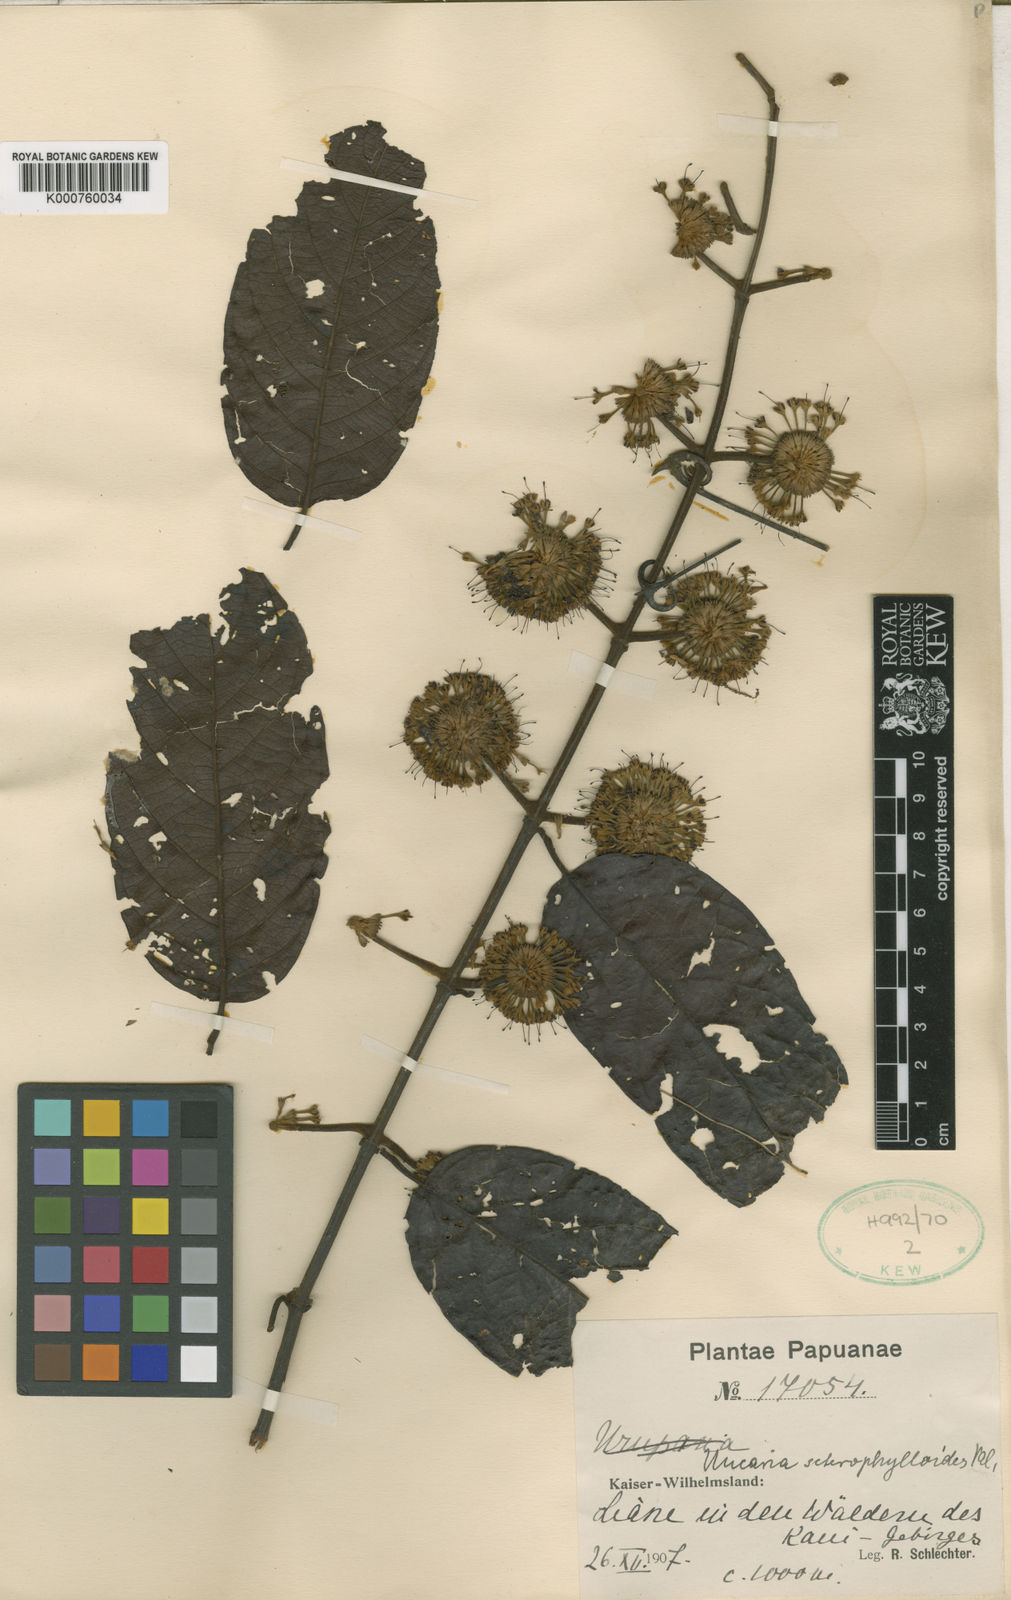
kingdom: Plantae
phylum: Tracheophyta
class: Magnoliopsida
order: Gentianales
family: Rubiaceae
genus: Uncaria
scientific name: Uncaria nervosa
